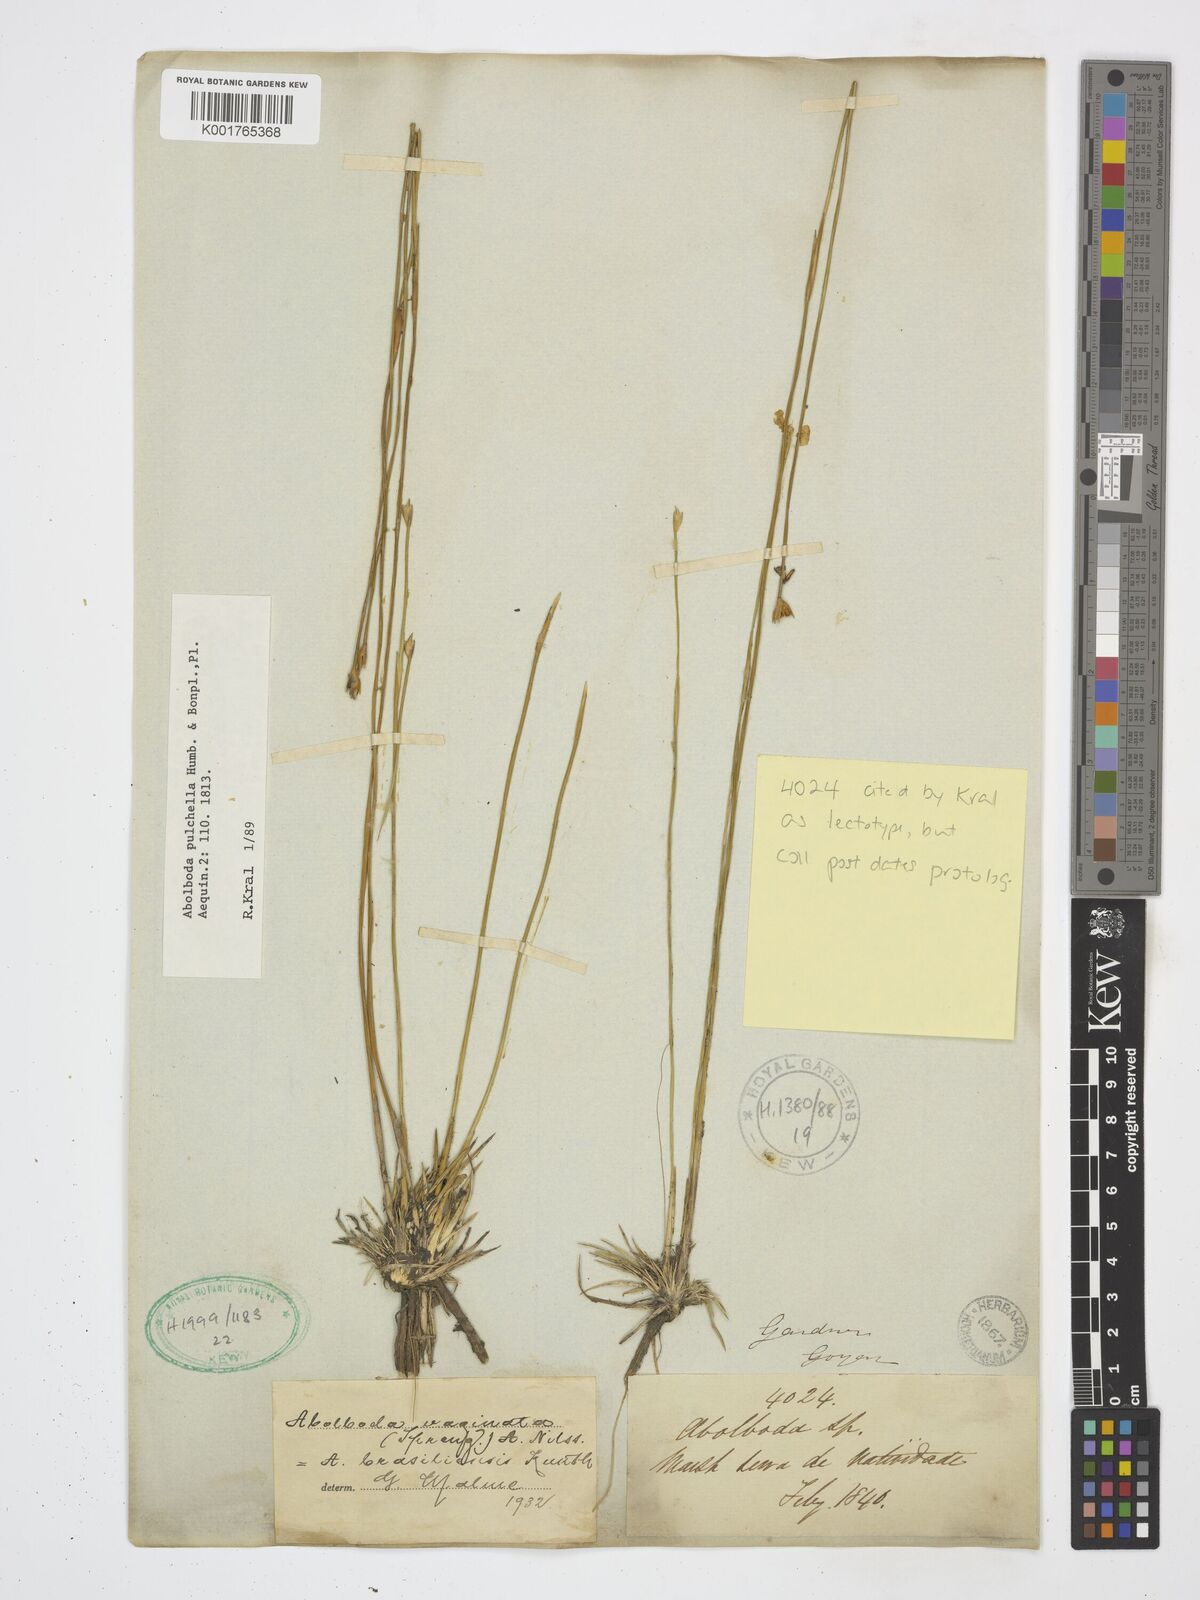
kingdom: Plantae
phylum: Tracheophyta
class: Liliopsida
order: Poales
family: Xyridaceae
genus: Abolboda
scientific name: Abolboda pulchella
